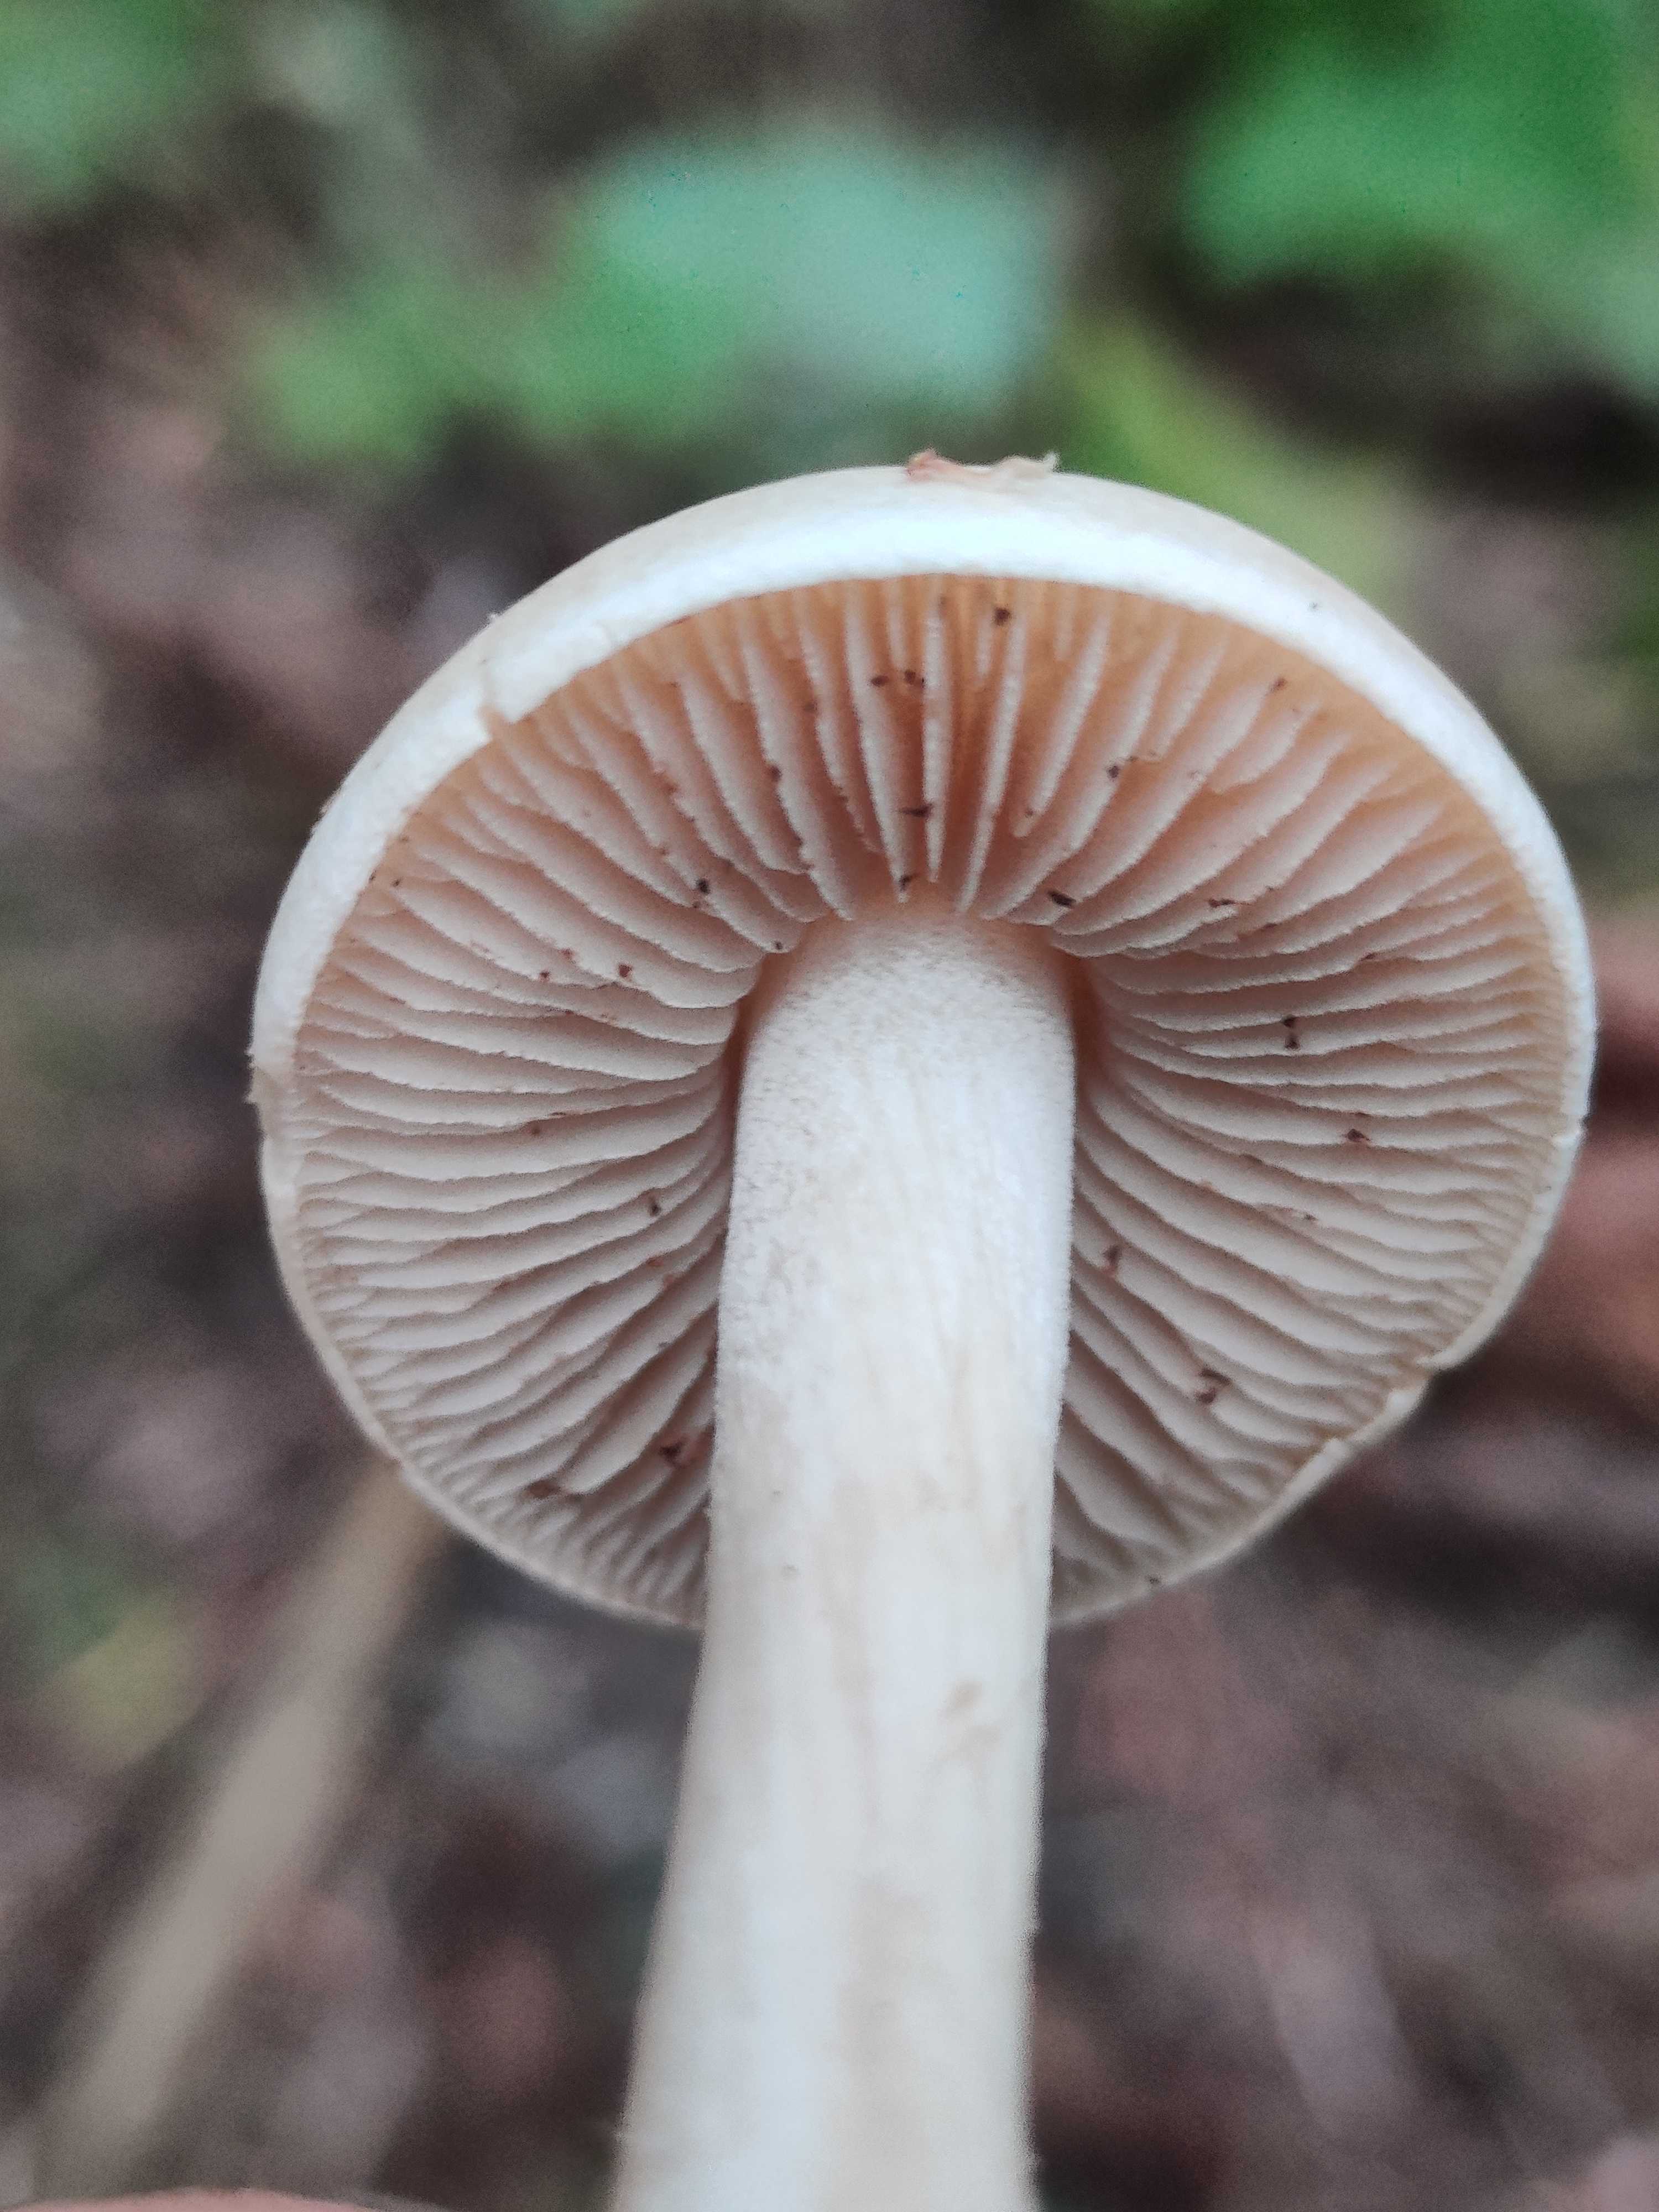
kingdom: Fungi
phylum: Basidiomycota
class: Agaricomycetes
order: Agaricales
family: Hymenogastraceae
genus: Hebeloma
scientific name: Hebeloma
